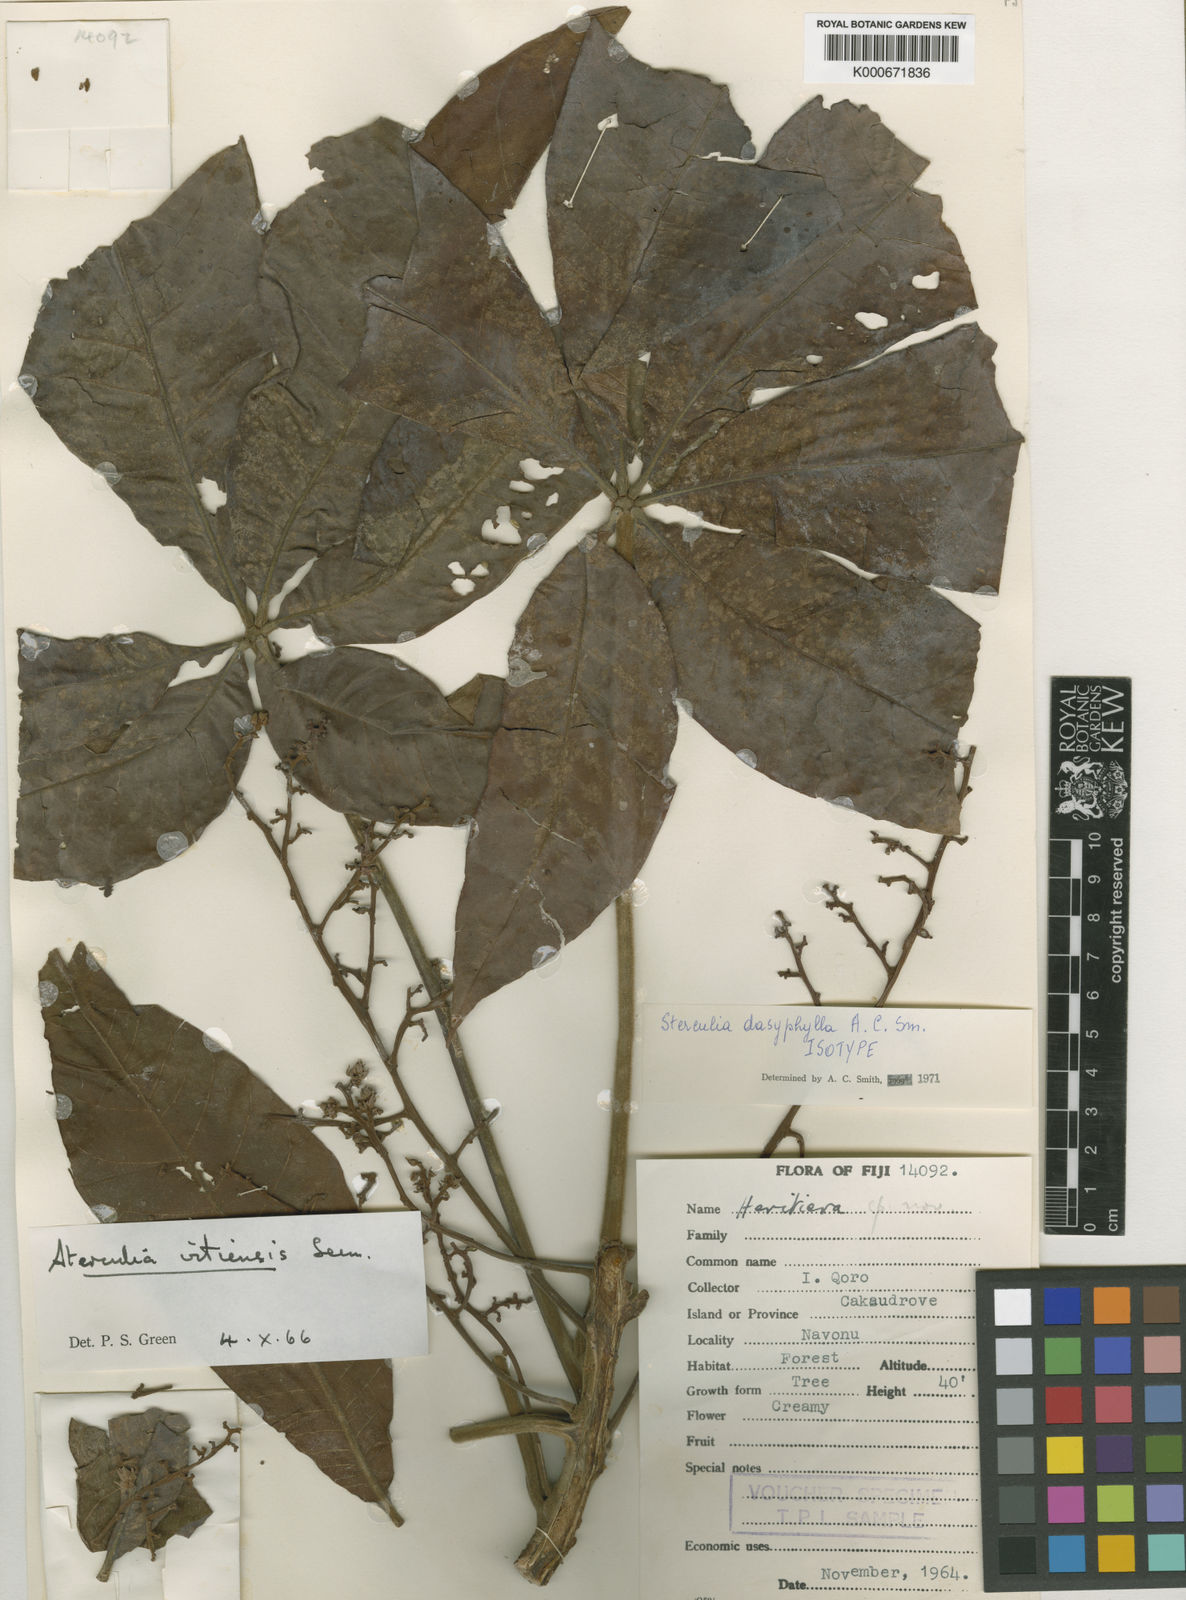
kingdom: Plantae
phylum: Tracheophyta
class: Magnoliopsida
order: Malvales
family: Malvaceae
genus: Sterculia
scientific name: Sterculia dasyphylla
